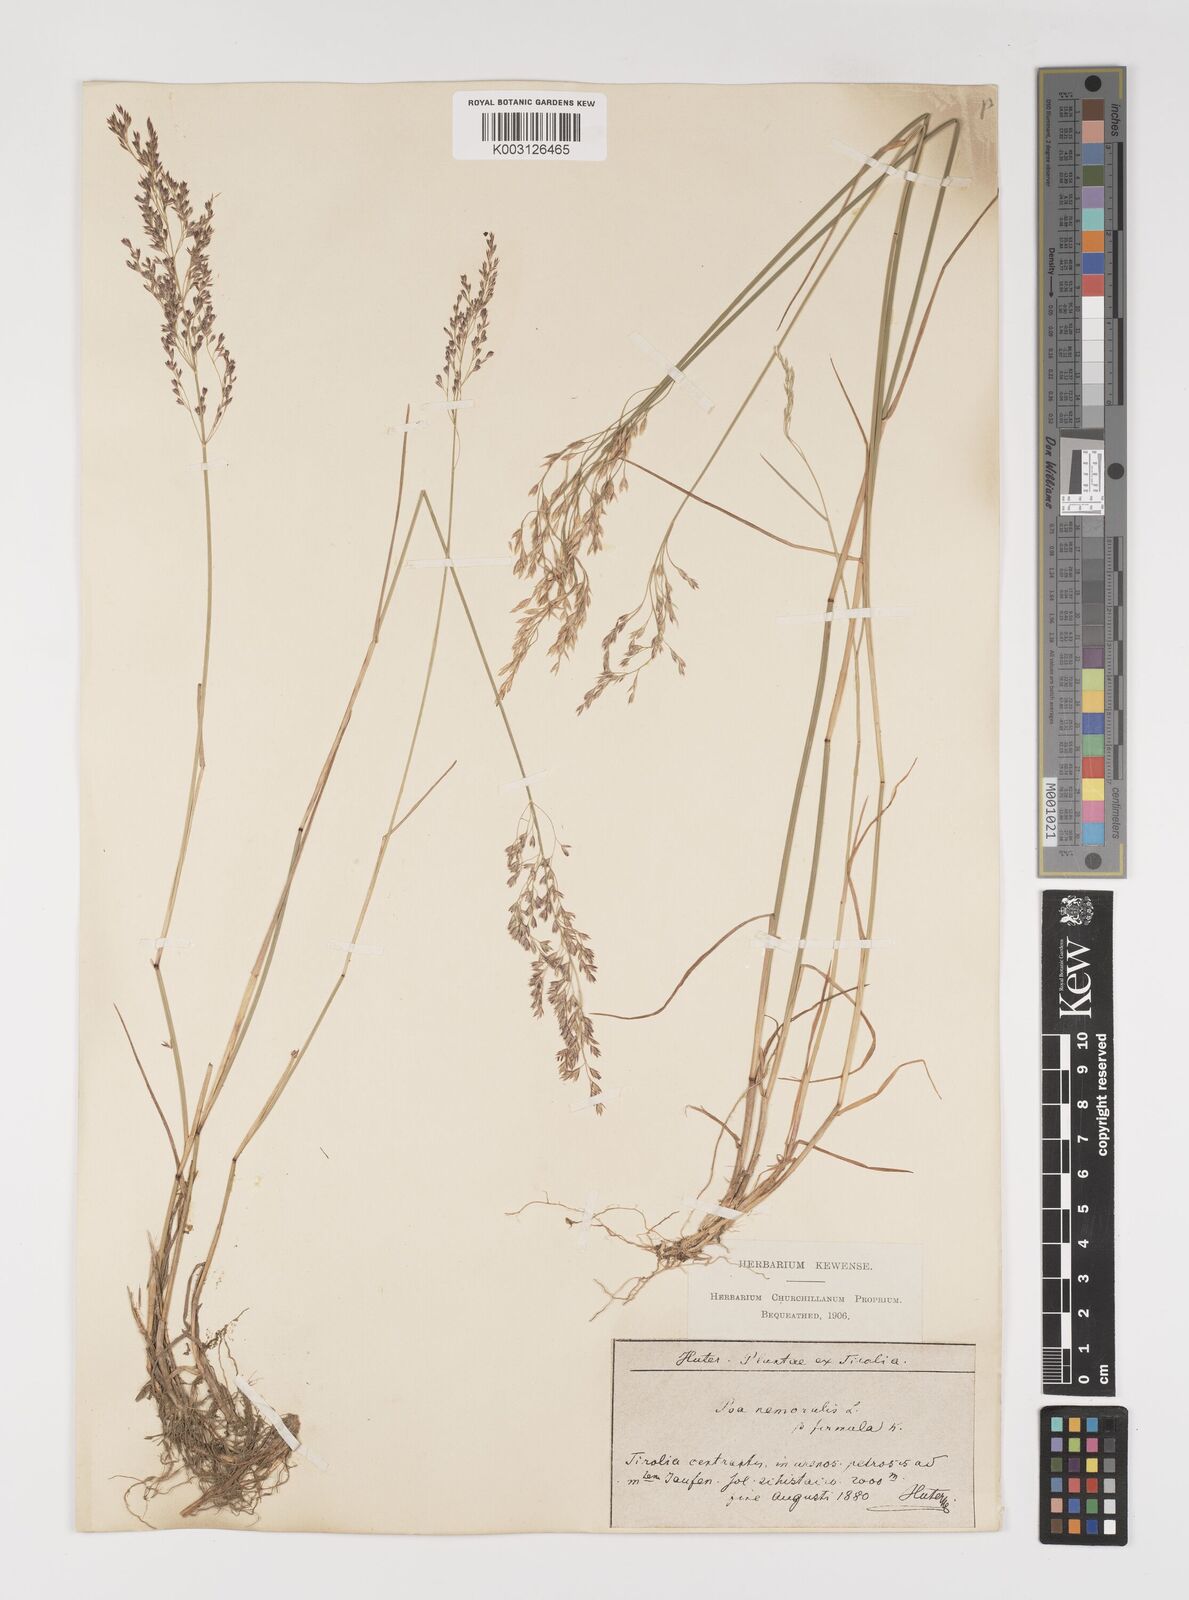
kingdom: Plantae
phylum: Tracheophyta
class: Liliopsida
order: Poales
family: Poaceae
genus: Poa
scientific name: Poa nemoralis
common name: Wood bluegrass
